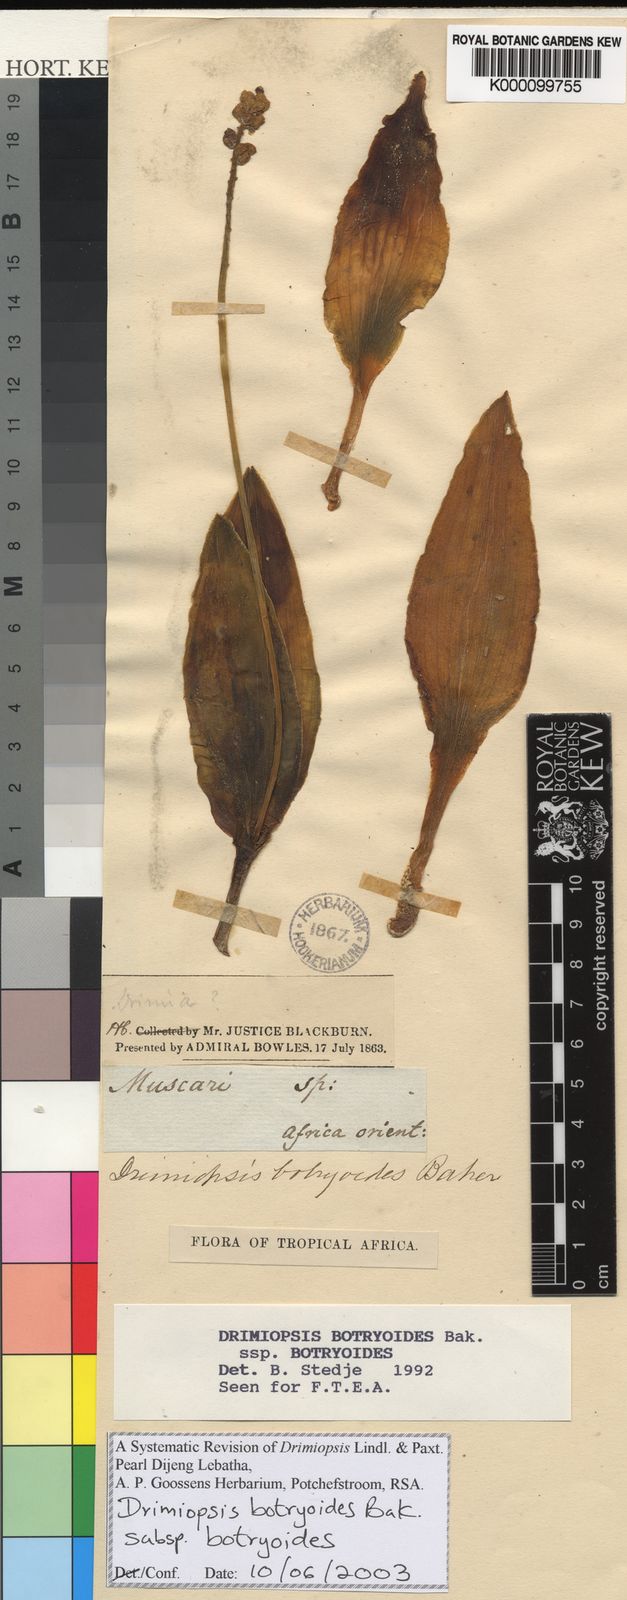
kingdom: Plantae
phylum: Tracheophyta
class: Liliopsida
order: Asparagales
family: Asparagaceae
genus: Drimiopsis
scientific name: Drimiopsis botryoides
